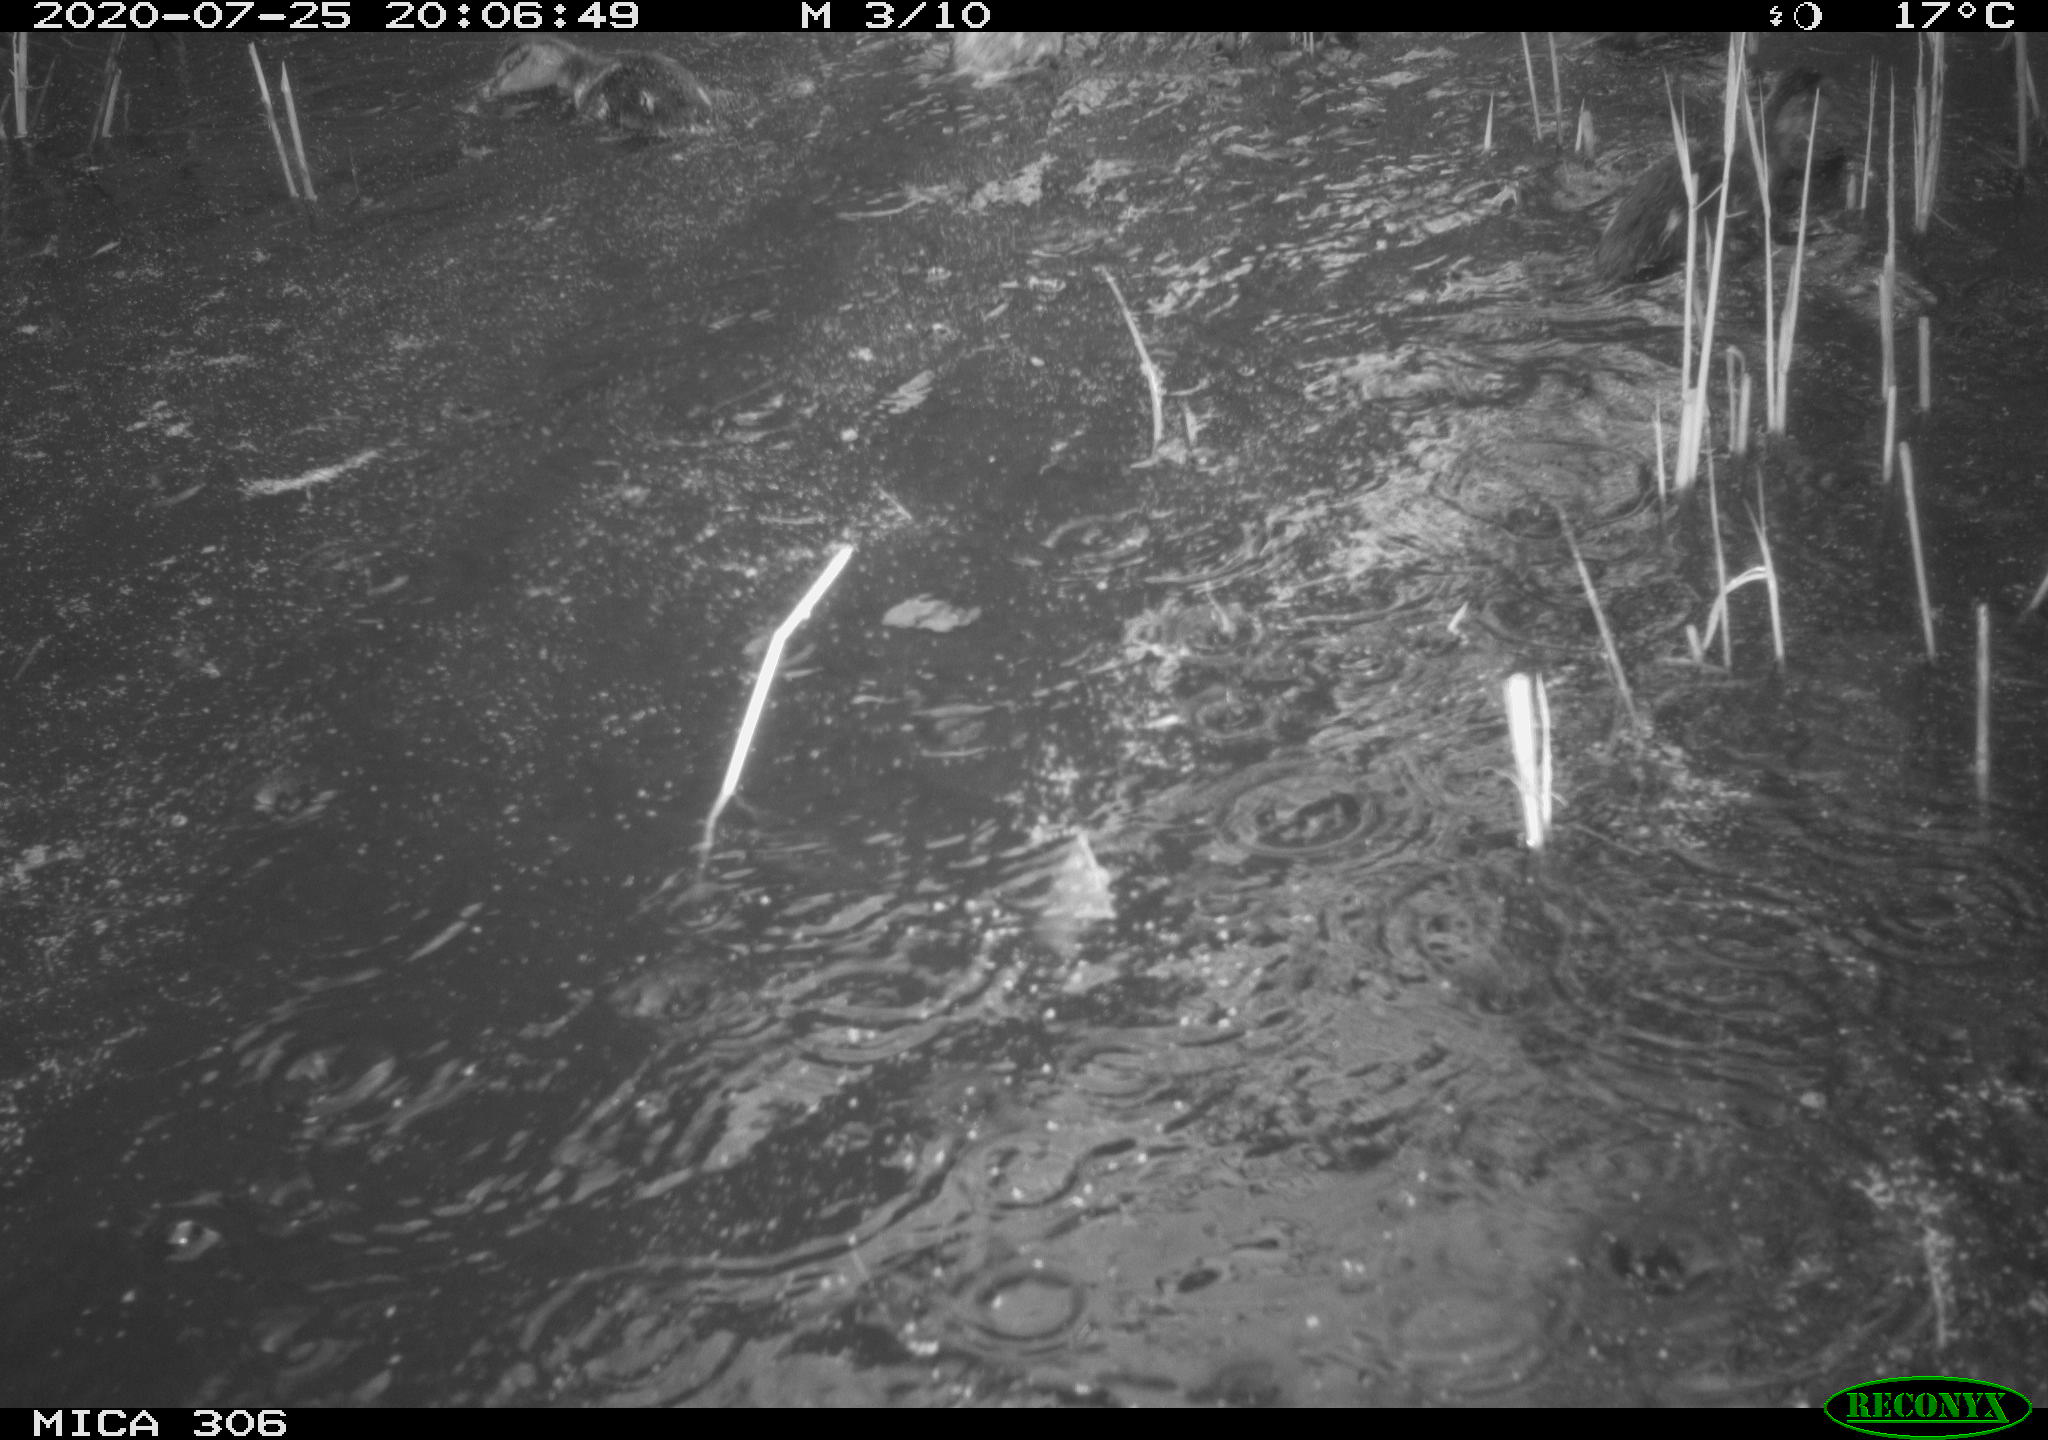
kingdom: Animalia
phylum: Chordata
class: Aves
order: Anseriformes
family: Anatidae
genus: Anas
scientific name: Anas platyrhynchos
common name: Mallard
